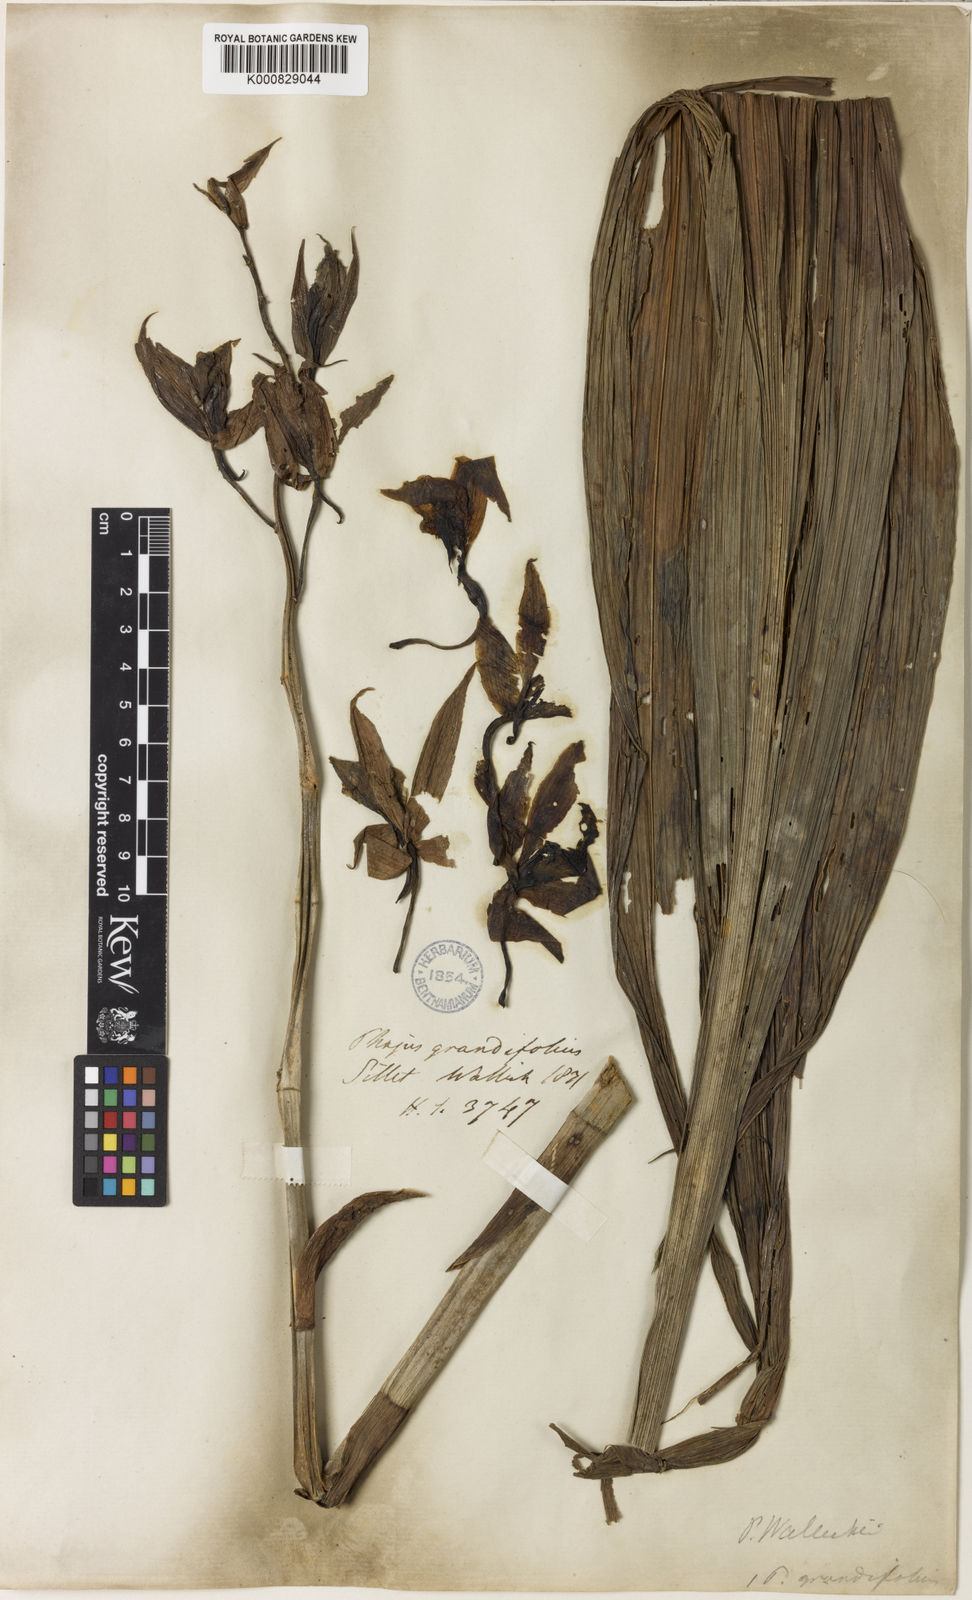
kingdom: Plantae
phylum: Tracheophyta
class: Liliopsida
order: Asparagales
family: Orchidaceae
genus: Calanthe
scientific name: Calanthe wallichii
